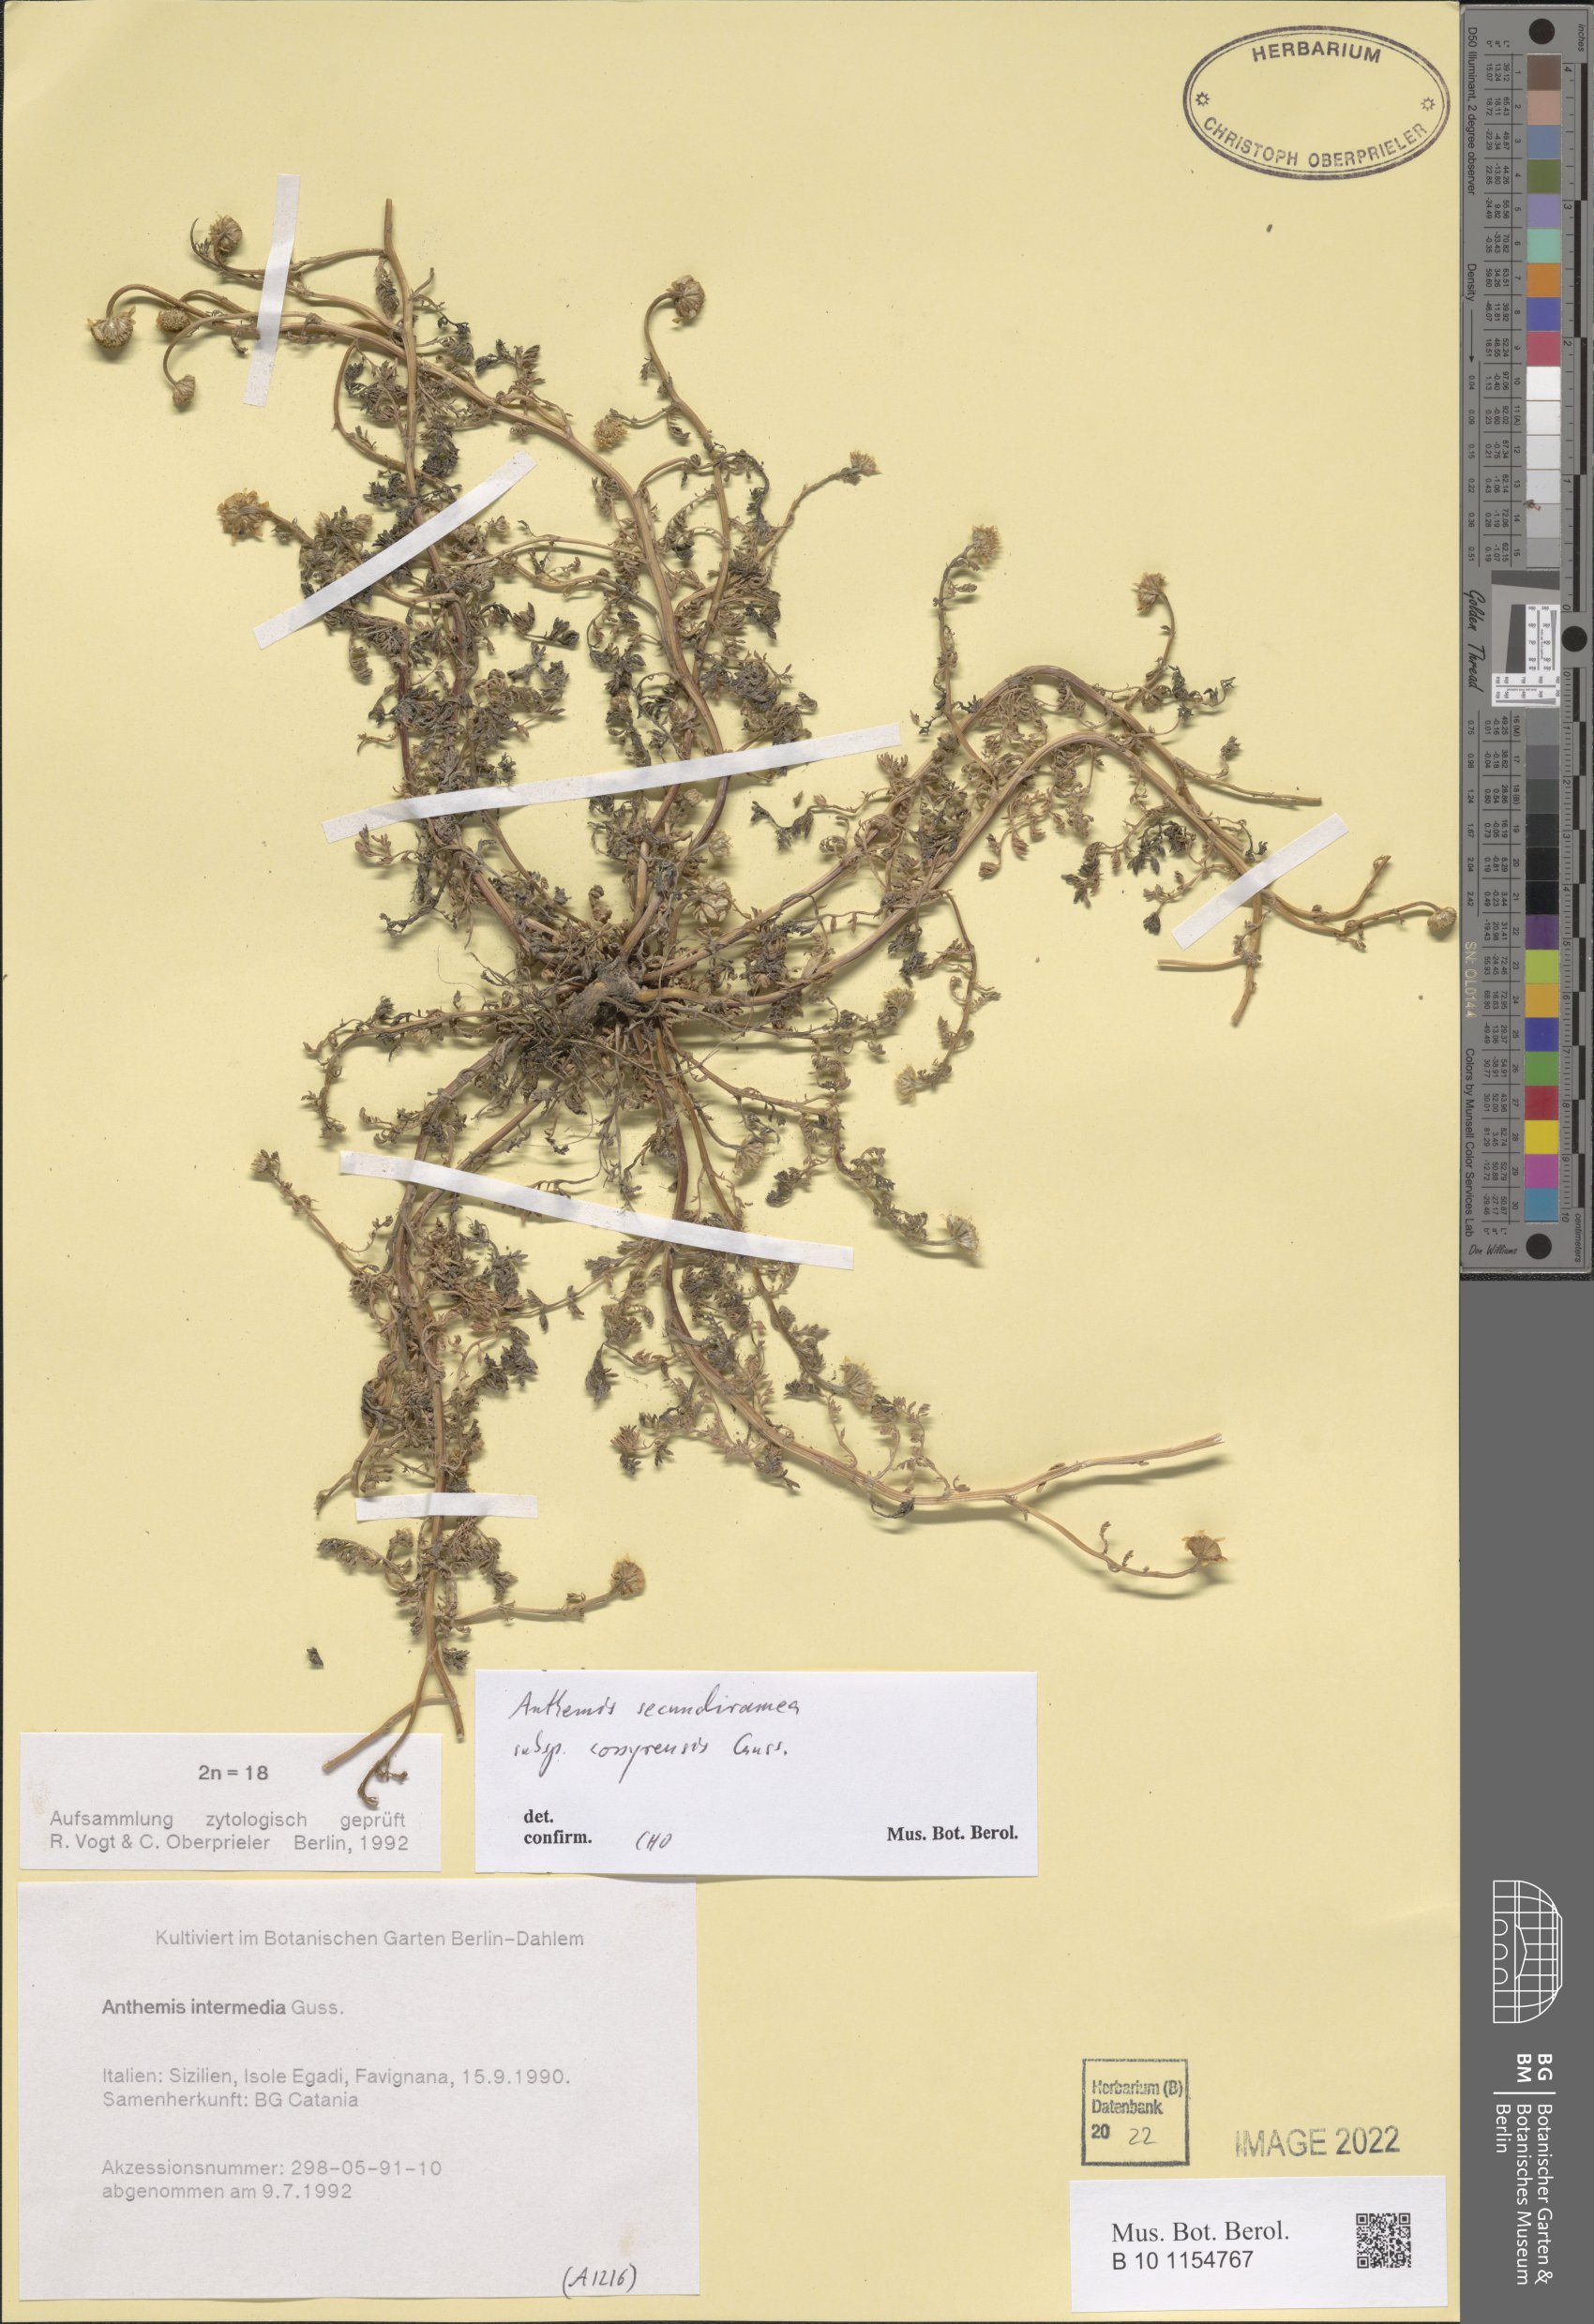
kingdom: Plantae
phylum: Tracheophyta
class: Magnoliopsida
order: Asterales
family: Asteraceae
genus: Anthemis
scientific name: Anthemis secundiramea
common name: Prostrate chamomile
